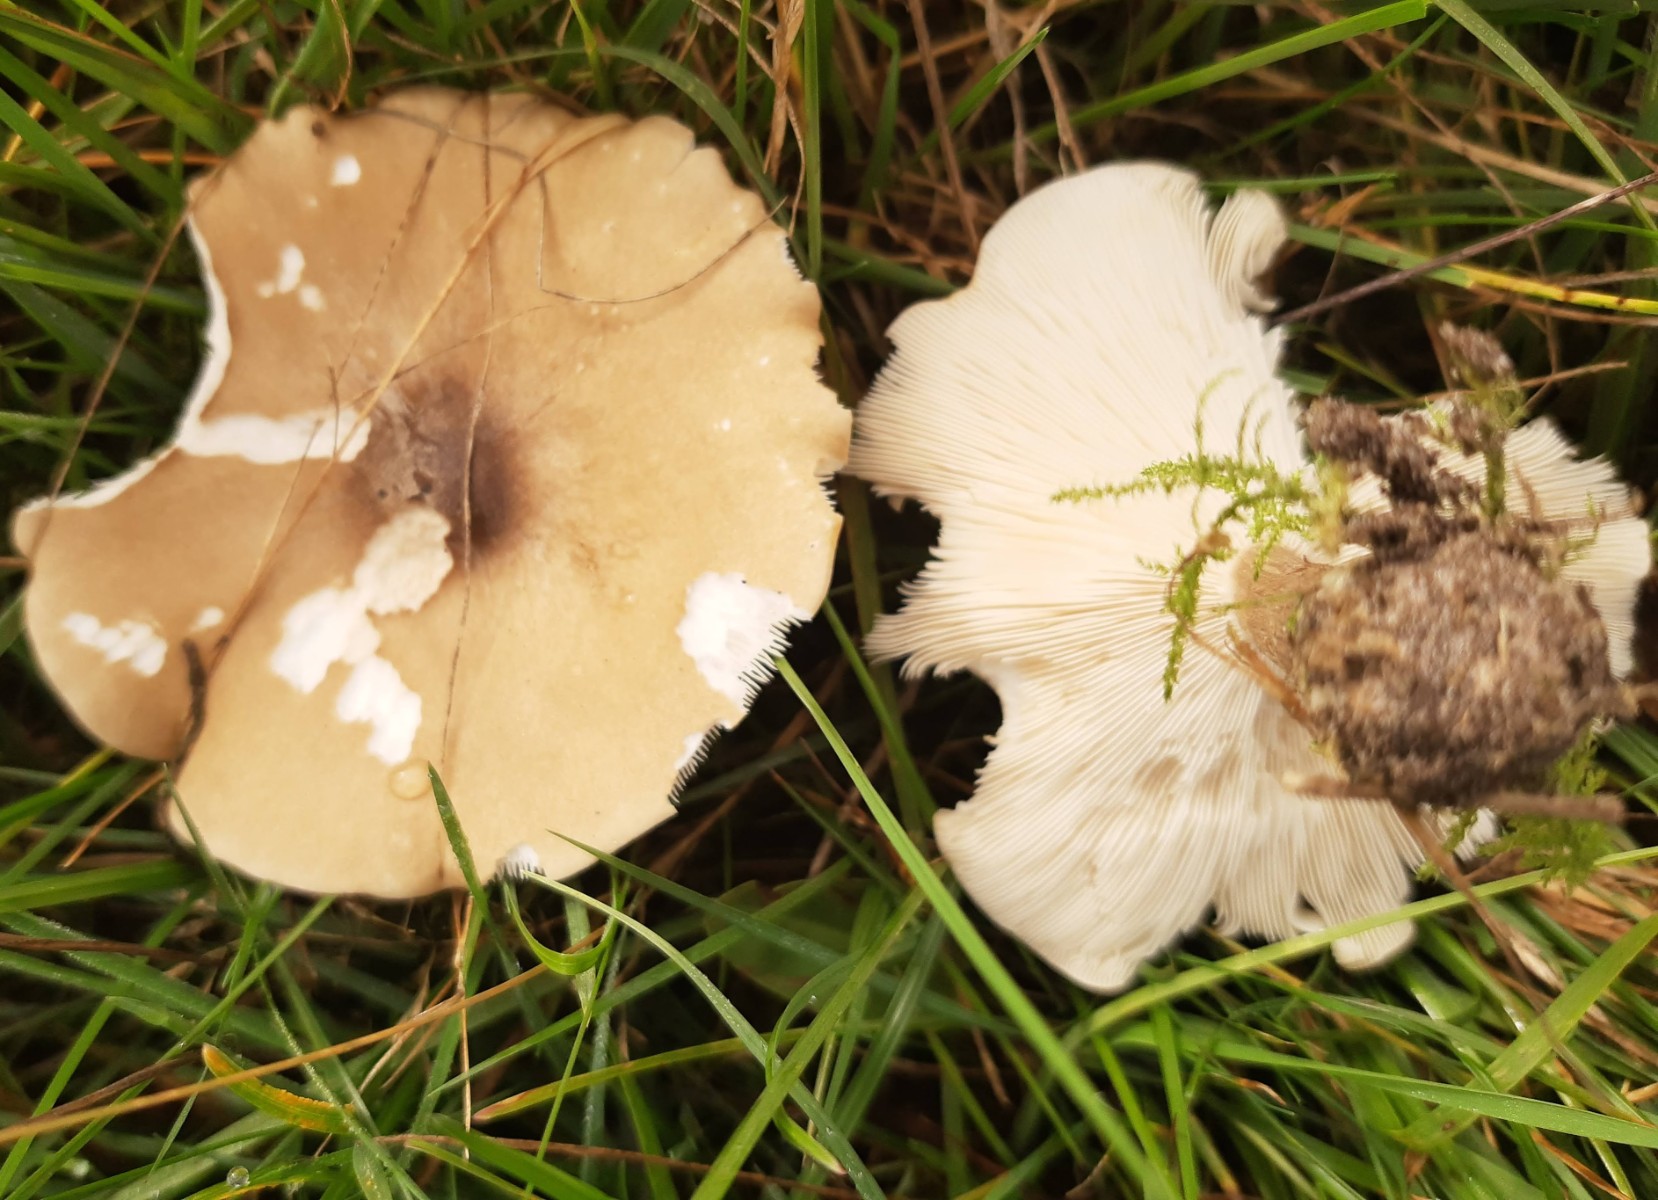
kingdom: Fungi
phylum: Basidiomycota
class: Agaricomycetes
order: Agaricales
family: Tricholomataceae
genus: Melanoleuca
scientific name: Melanoleuca
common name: munkehat
